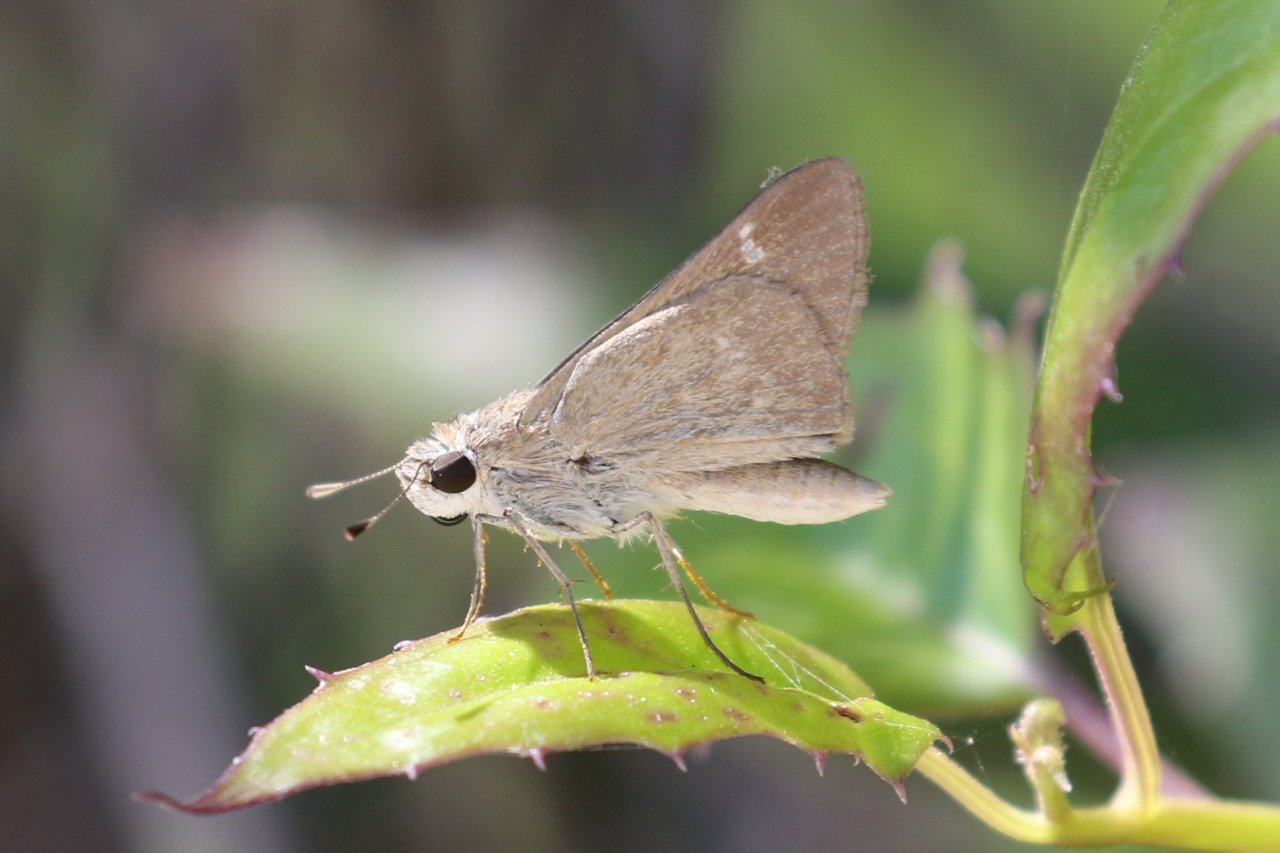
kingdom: Animalia
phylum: Arthropoda
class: Insecta
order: Lepidoptera
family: Hesperiidae
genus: Lerodea
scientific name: Lerodea eufala
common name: Eufala Skipper
